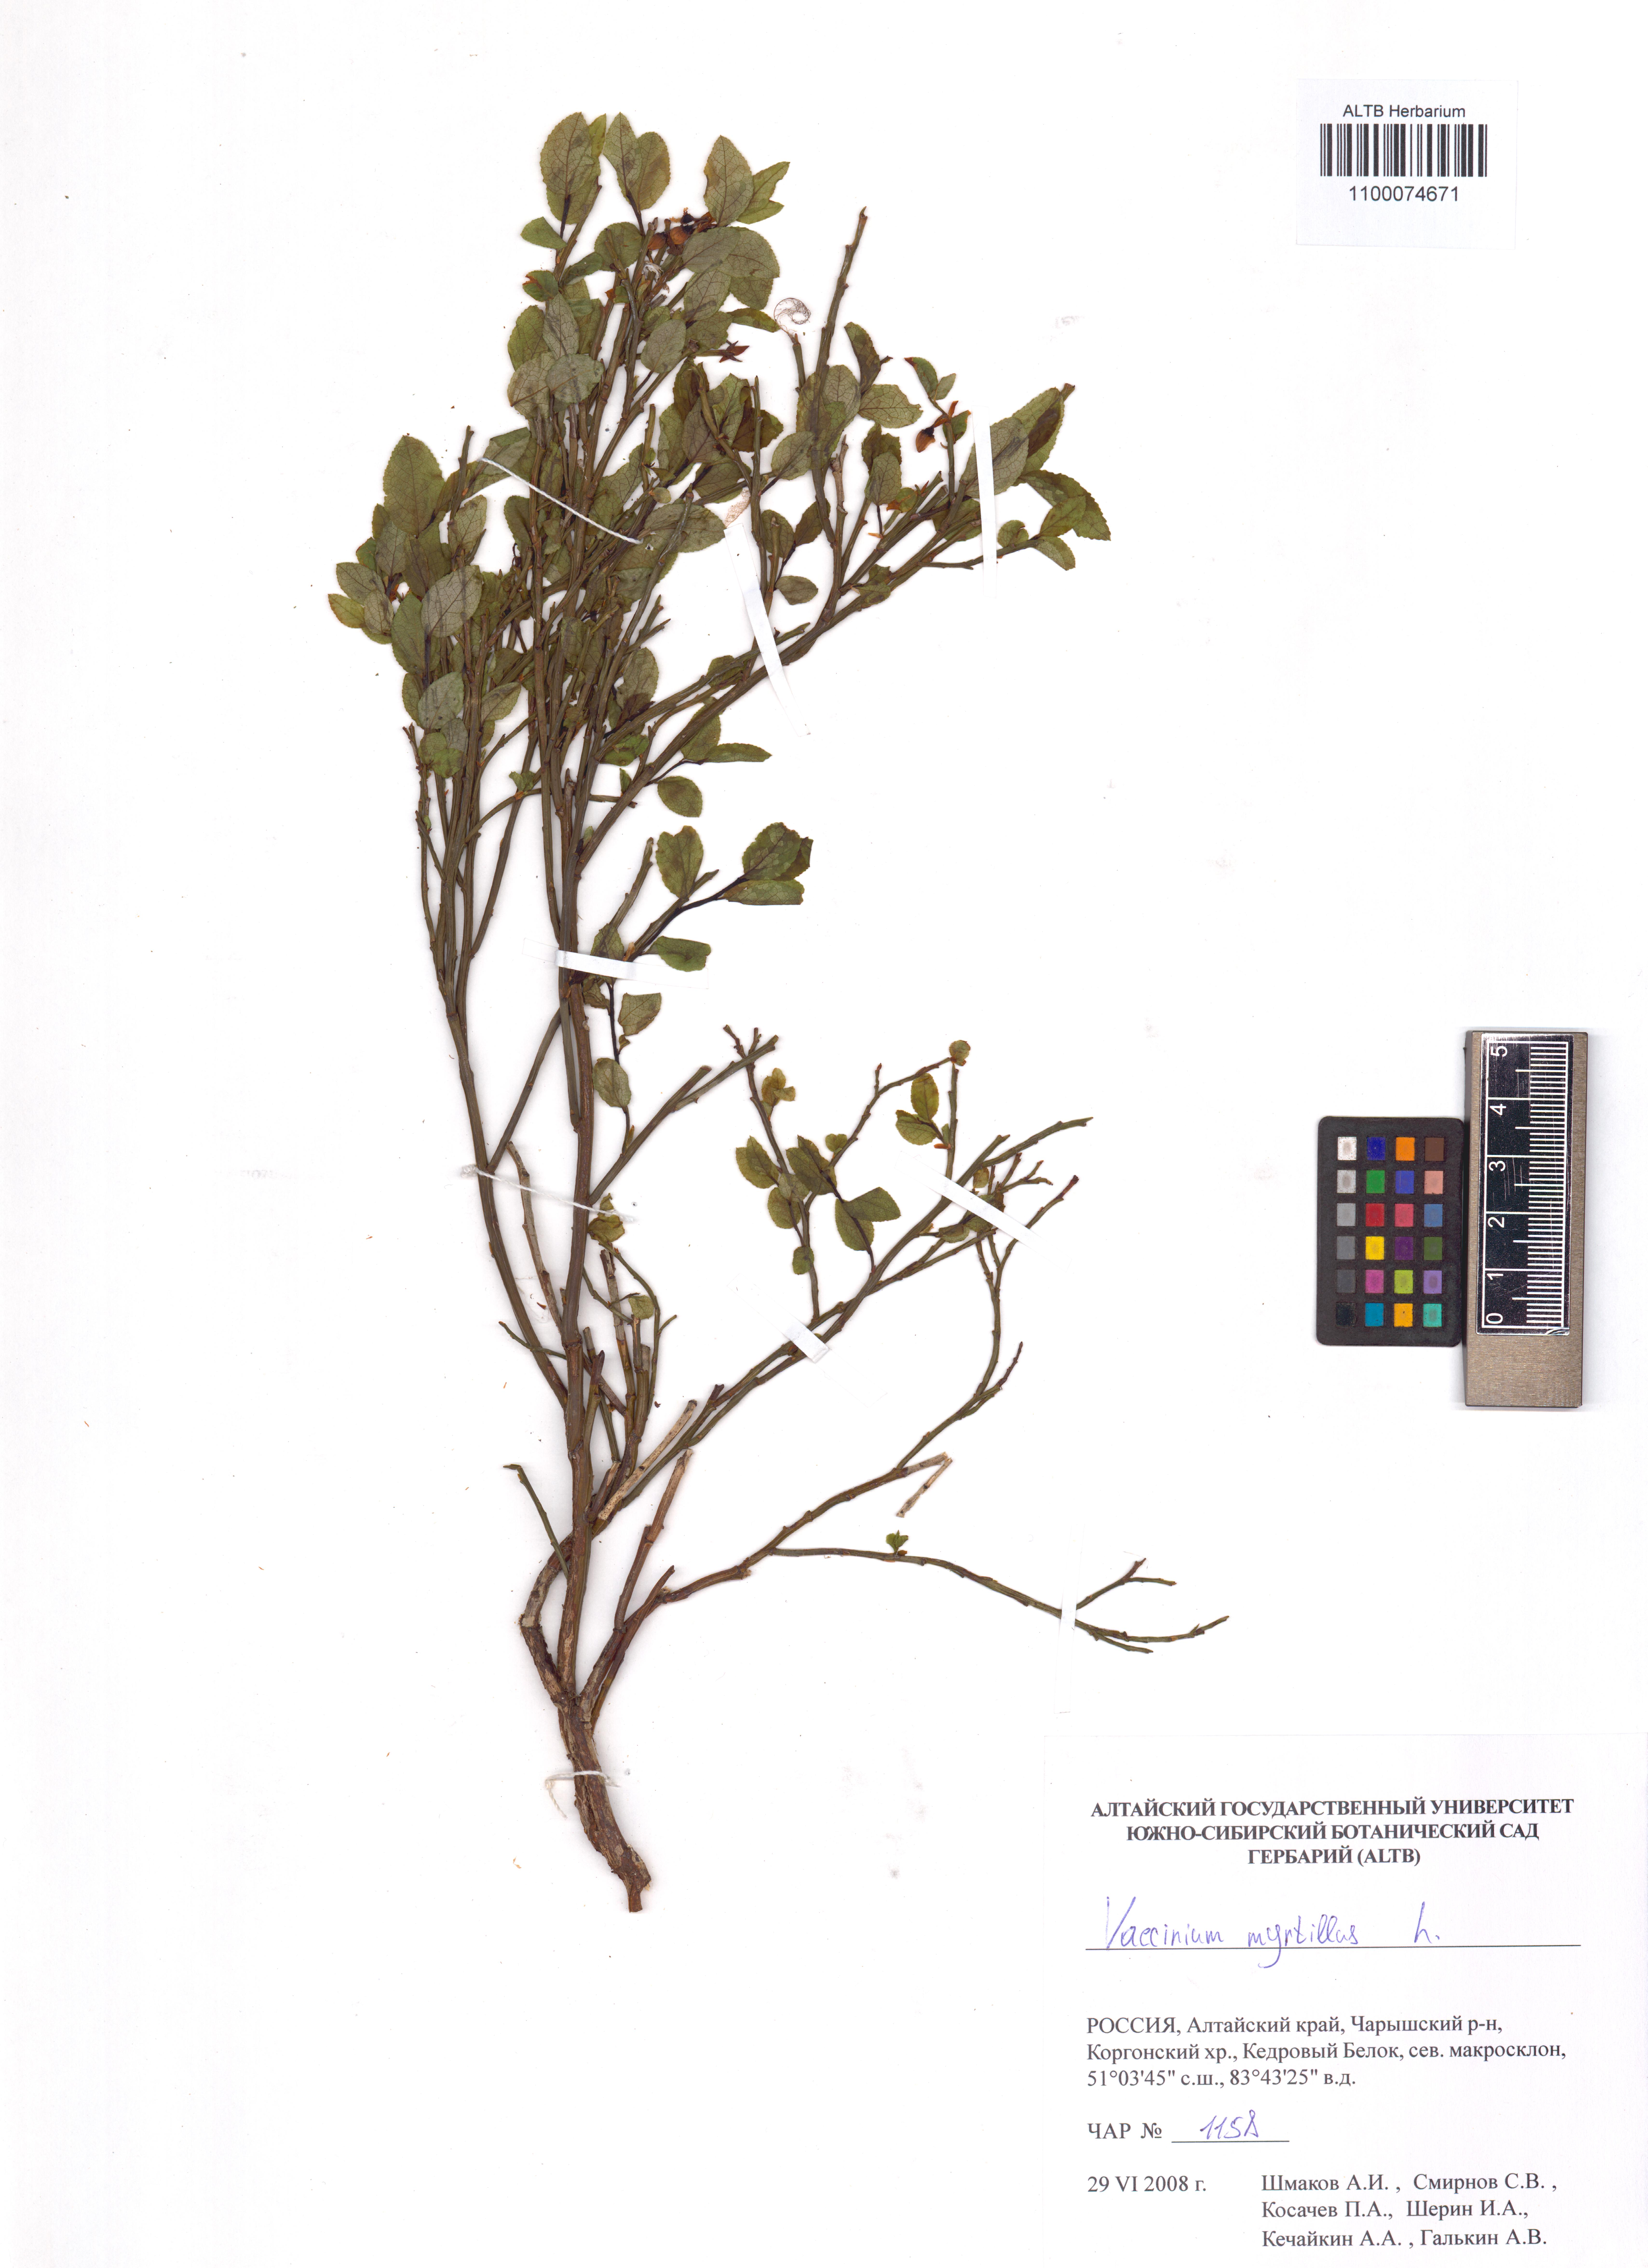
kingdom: Plantae
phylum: Tracheophyta
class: Magnoliopsida
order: Ericales
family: Ericaceae
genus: Vaccinium
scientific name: Vaccinium myrtillus
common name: Bilberry
